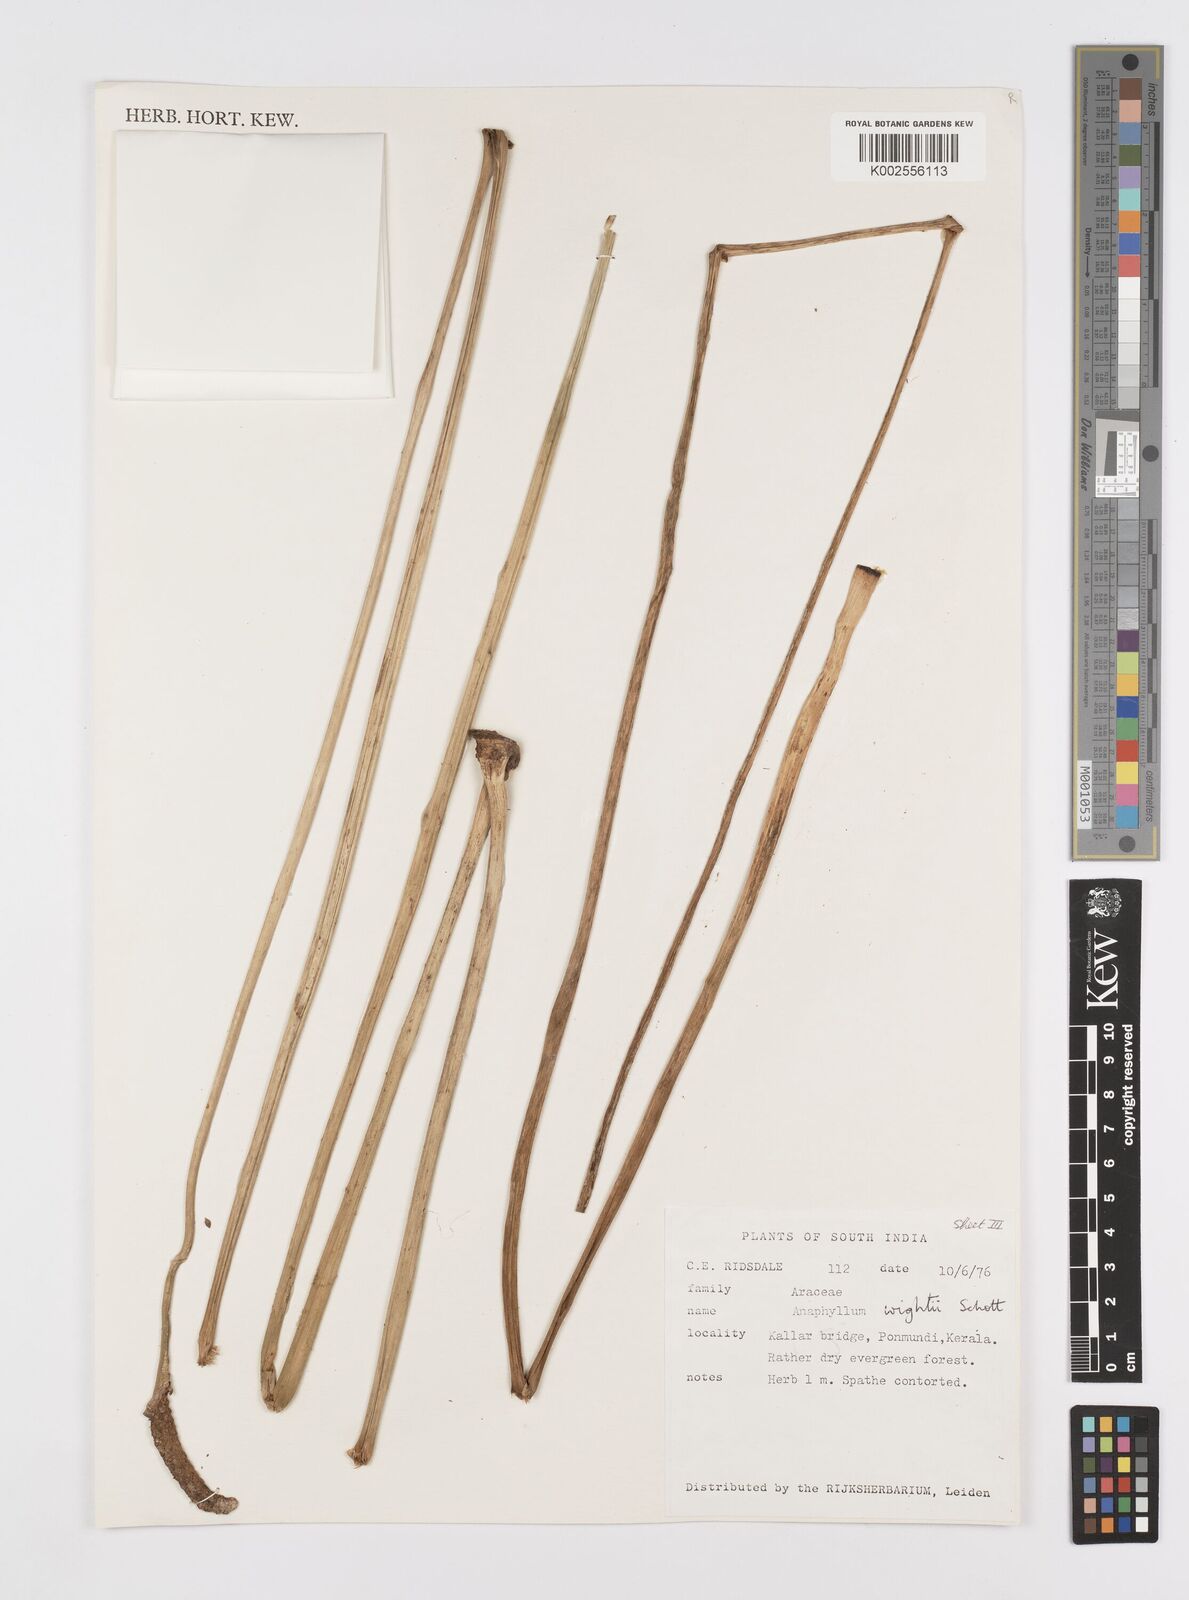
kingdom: Plantae
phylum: Tracheophyta
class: Liliopsida
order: Alismatales
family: Araceae
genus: Anaphyllum
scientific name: Anaphyllum wightii
